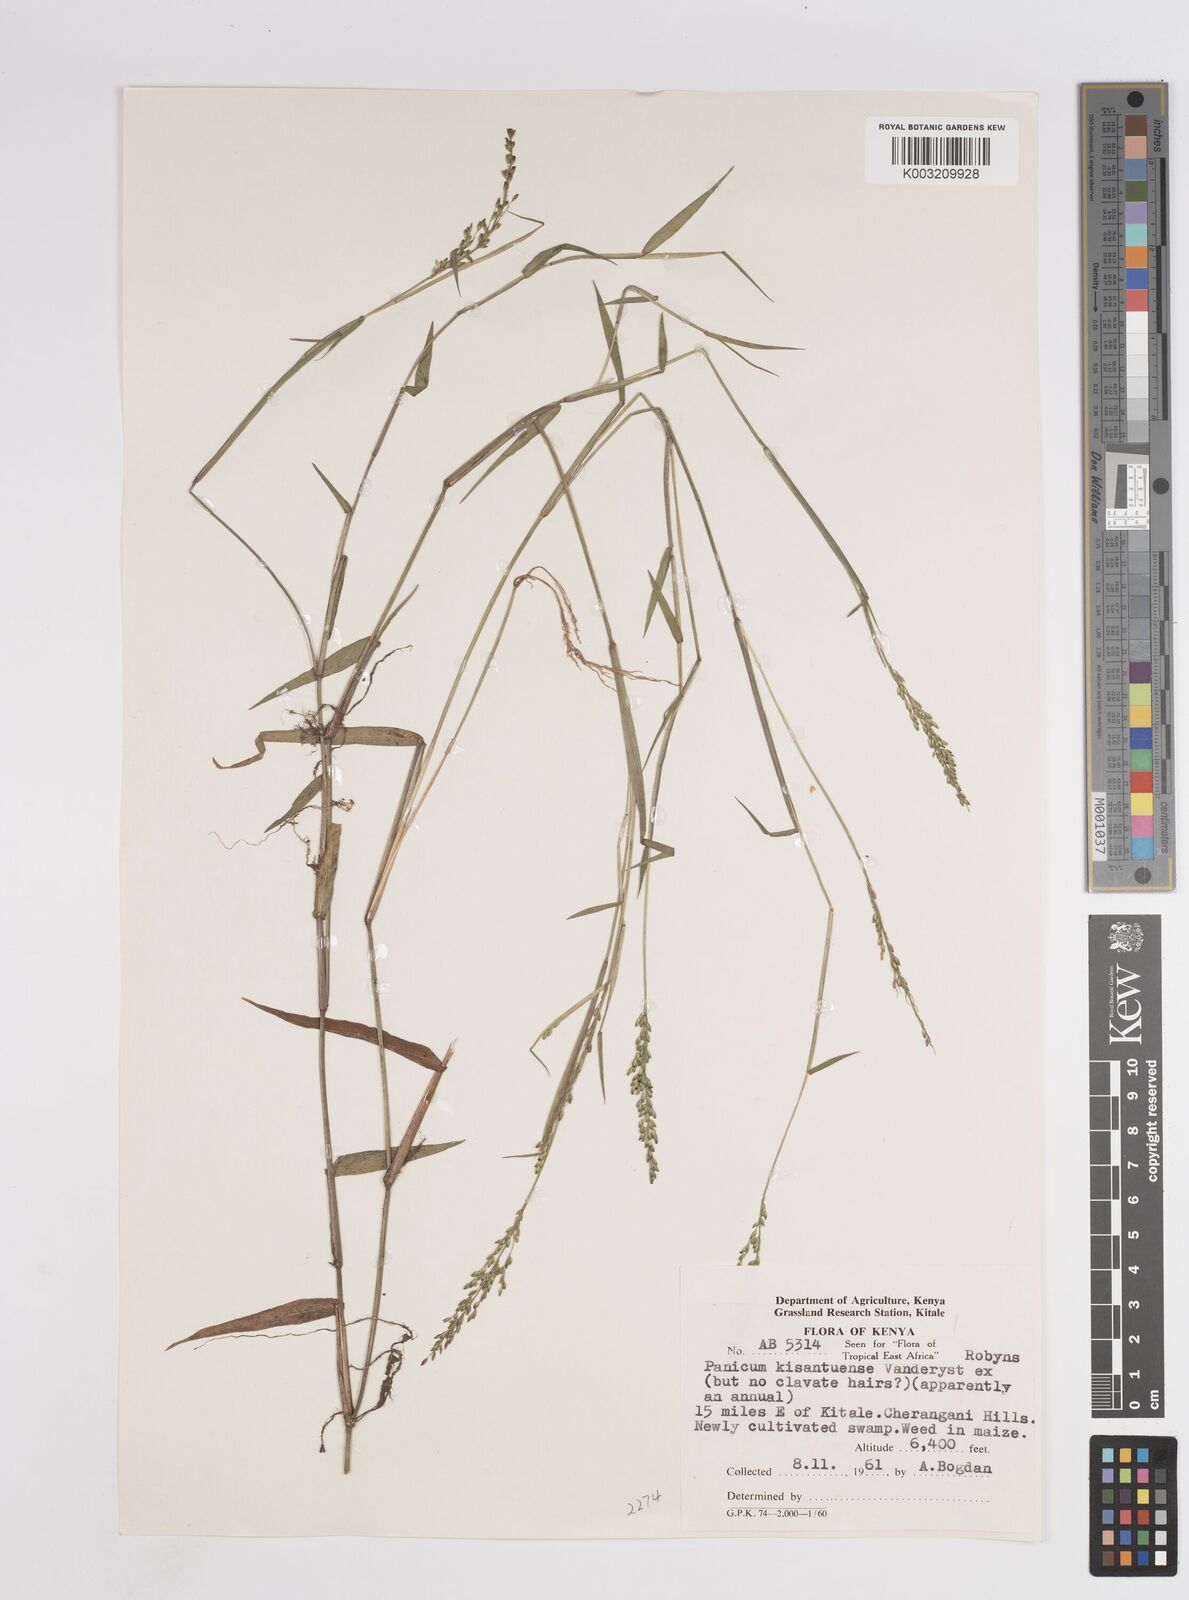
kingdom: Plantae
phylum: Tracheophyta
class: Liliopsida
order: Poales
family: Poaceae
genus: Adenochloa
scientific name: Adenochloa hymeniochila
